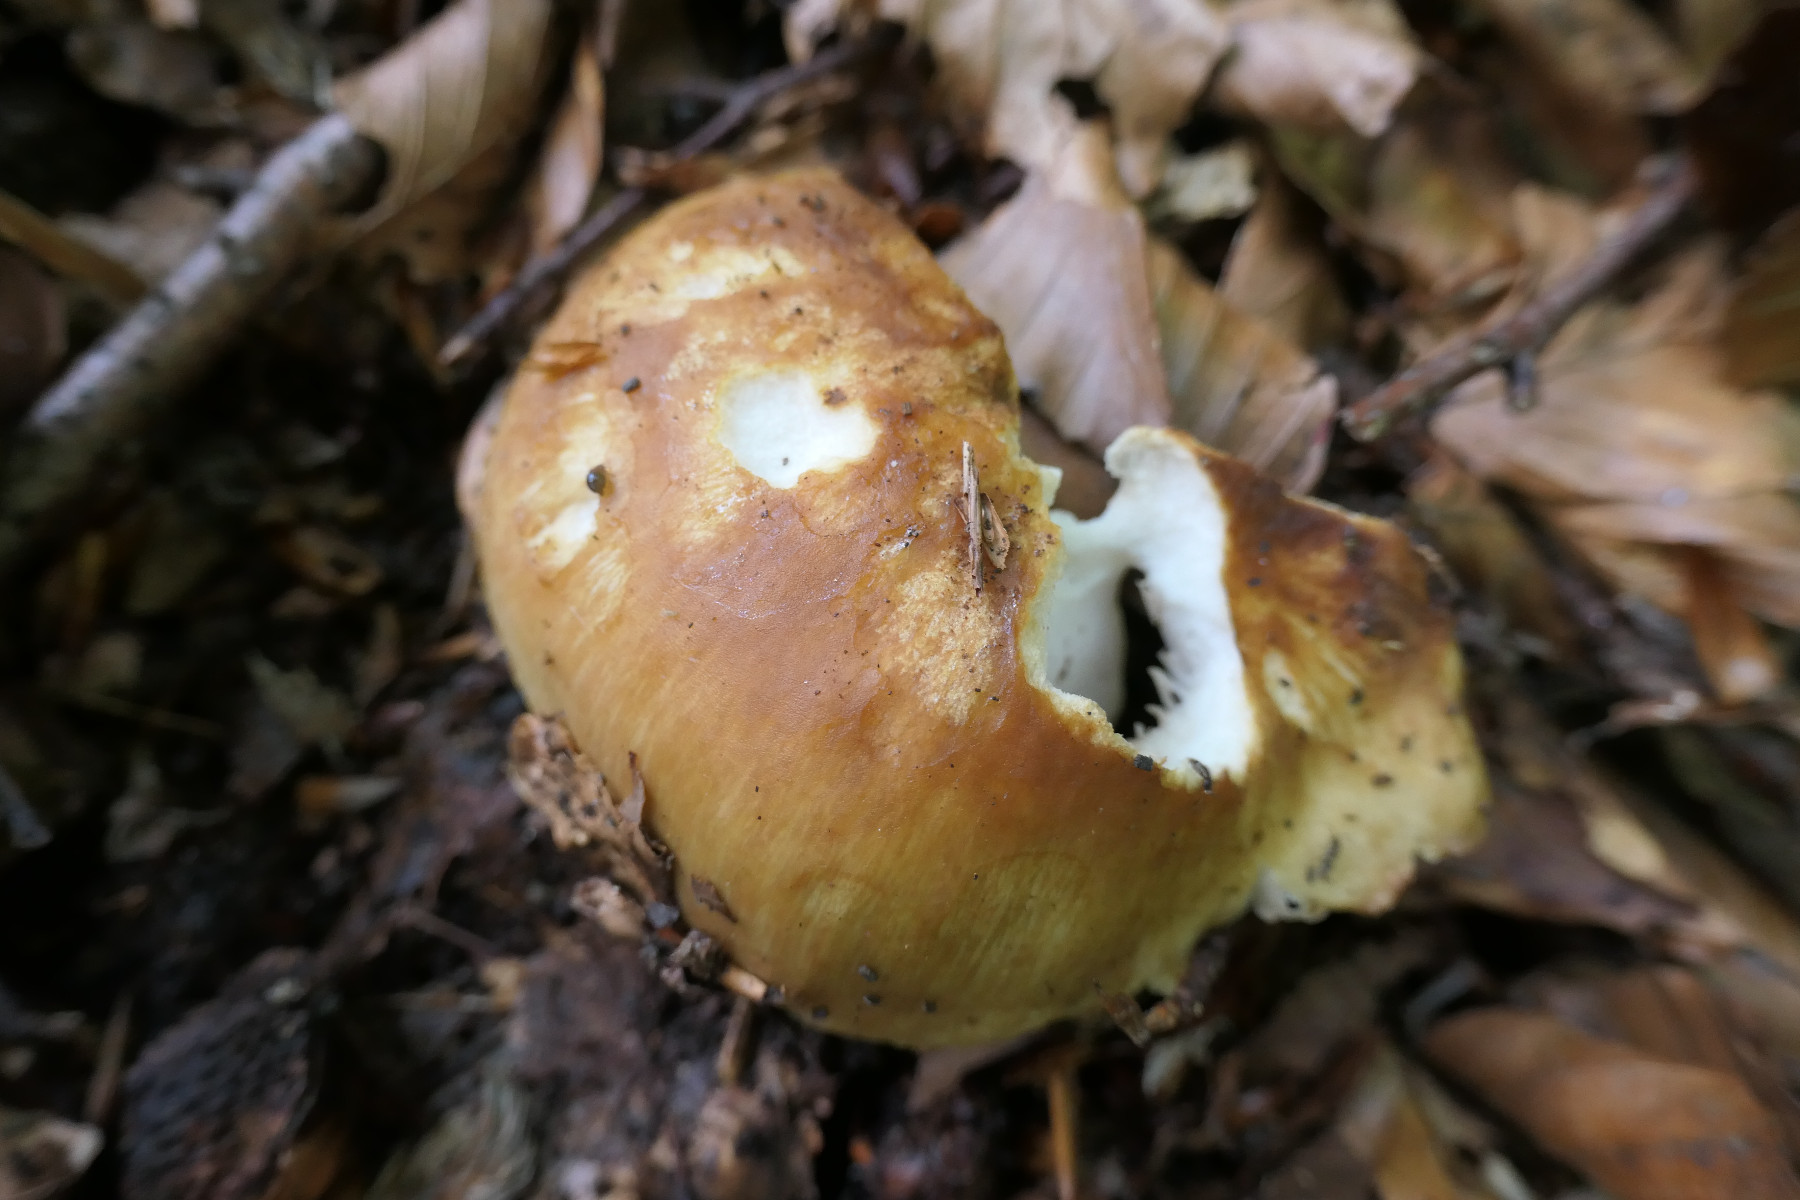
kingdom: Fungi
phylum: Basidiomycota
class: Agaricomycetes
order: Russulales
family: Russulaceae
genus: Russula
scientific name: Russula foetens
